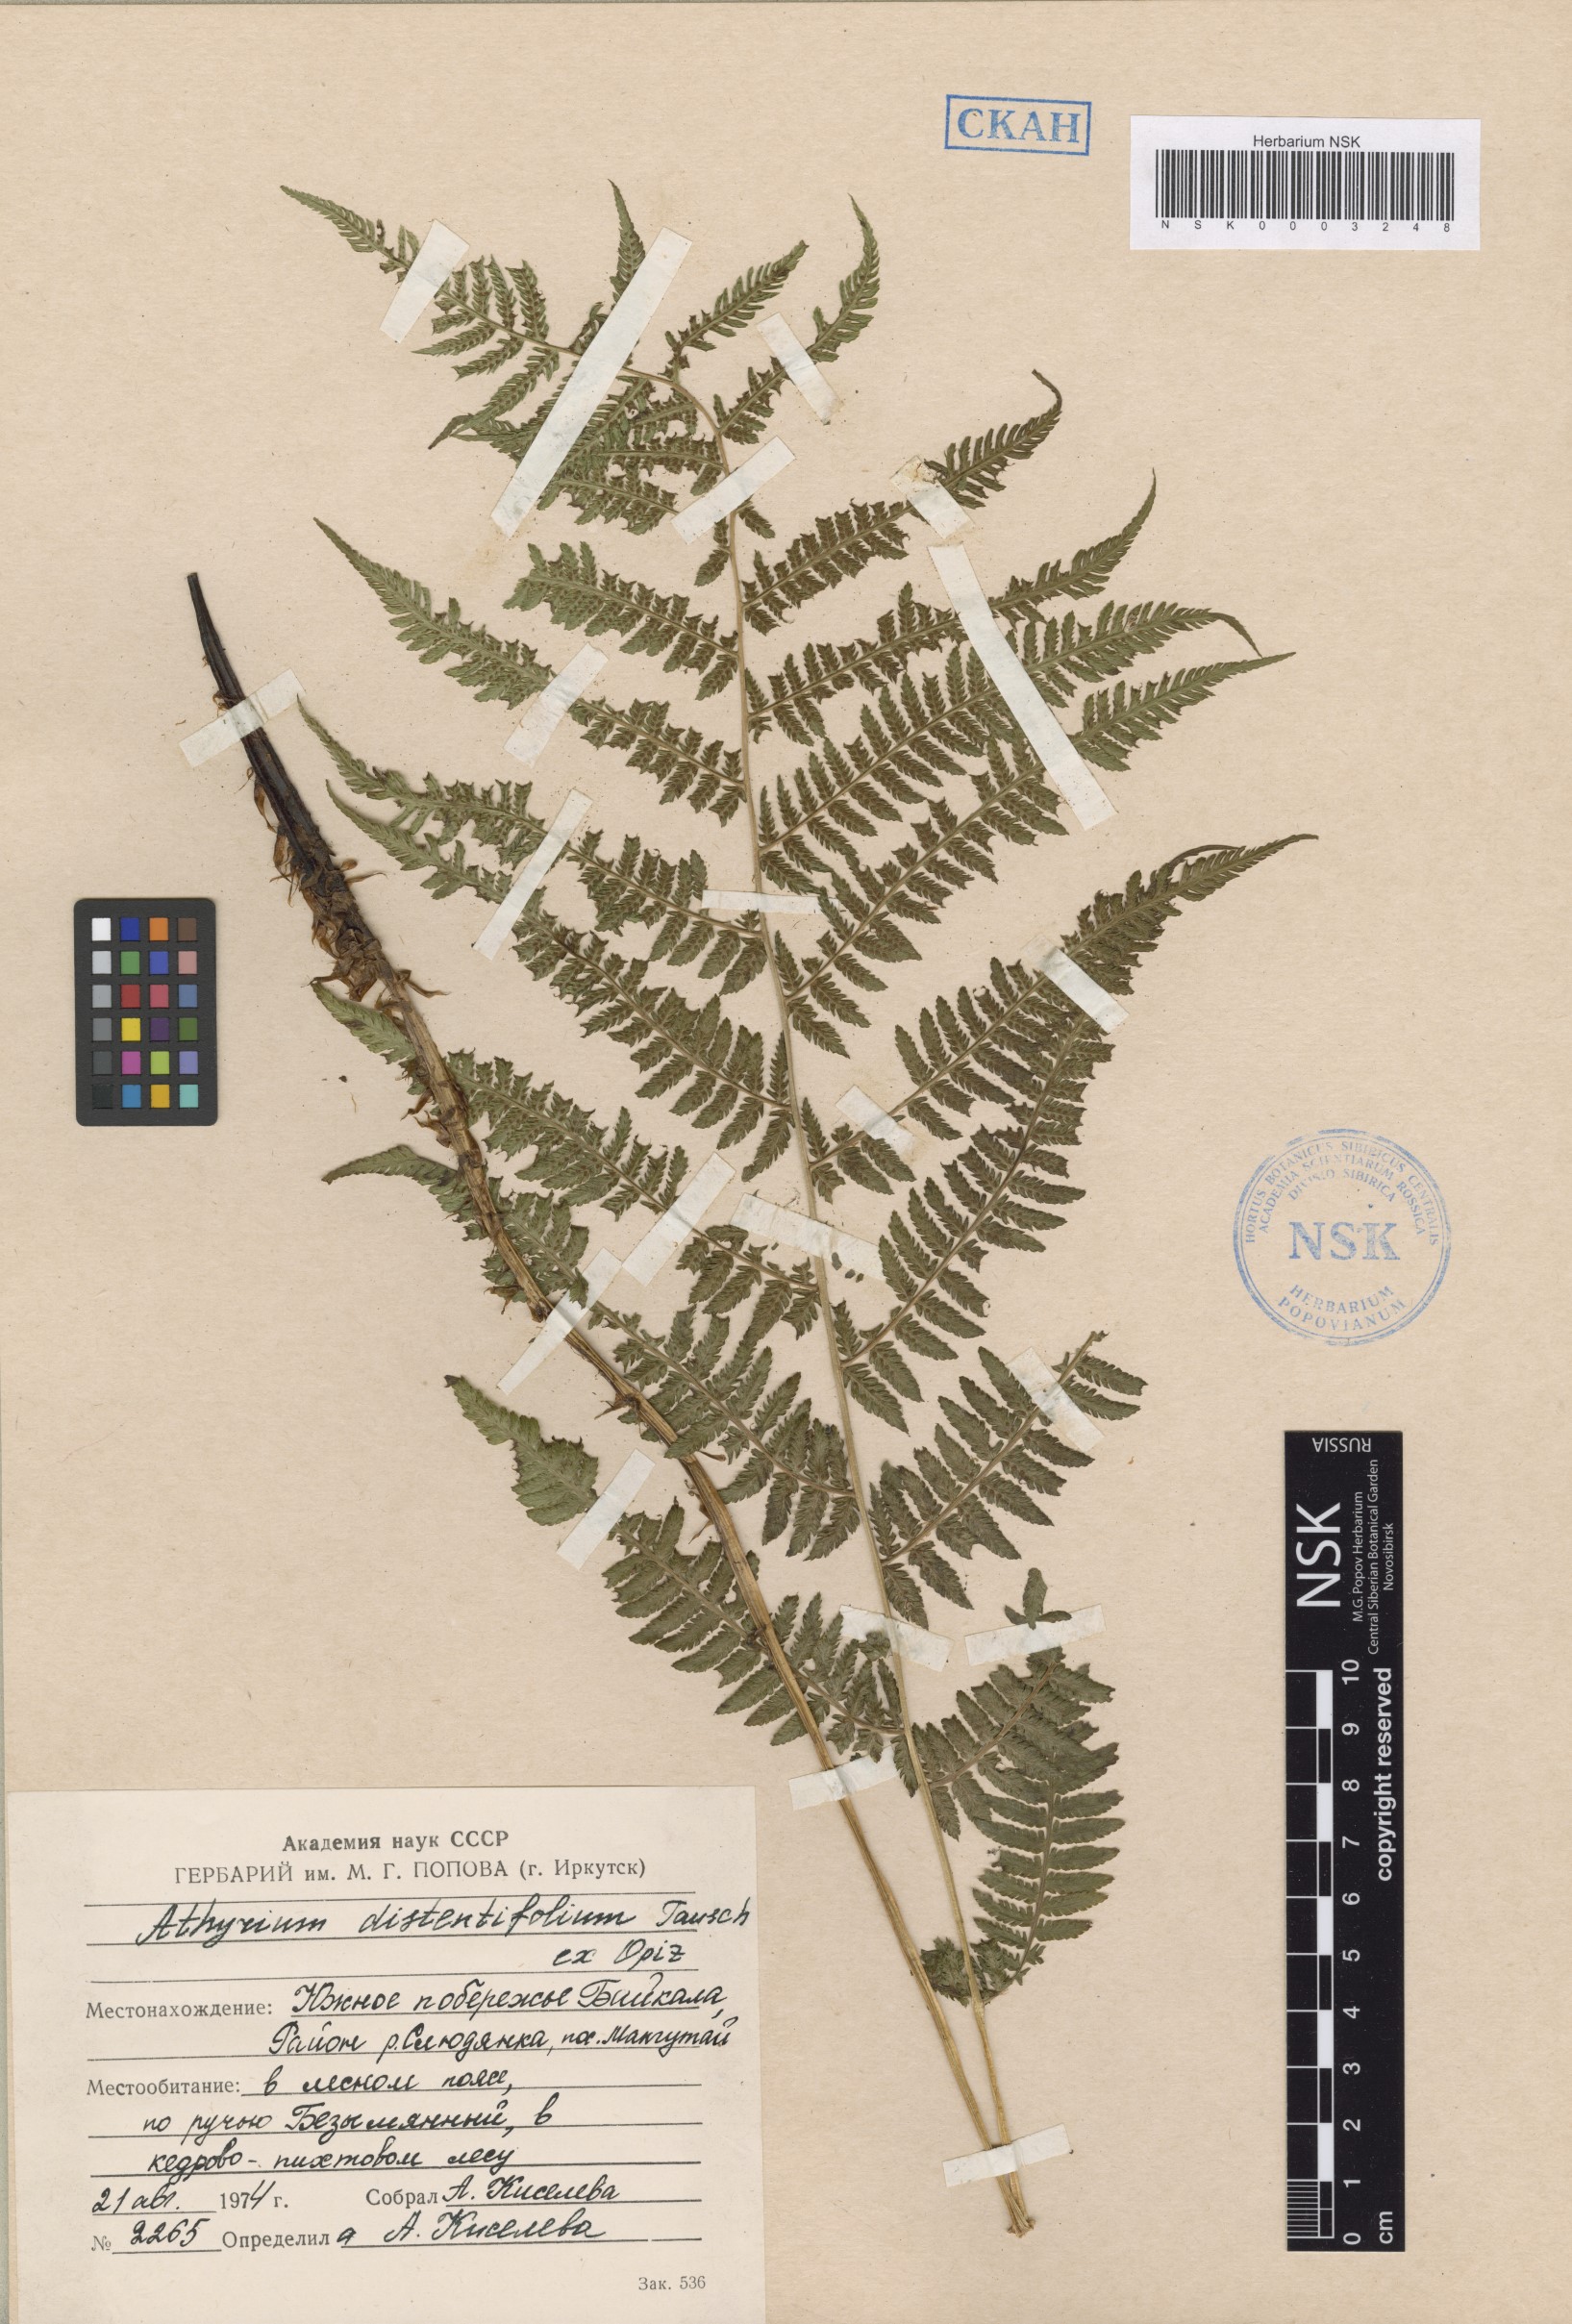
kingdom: Plantae
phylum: Tracheophyta
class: Polypodiopsida
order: Polypodiales
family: Athyriaceae
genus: Pseudathyrium
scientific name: Pseudathyrium alpestre
